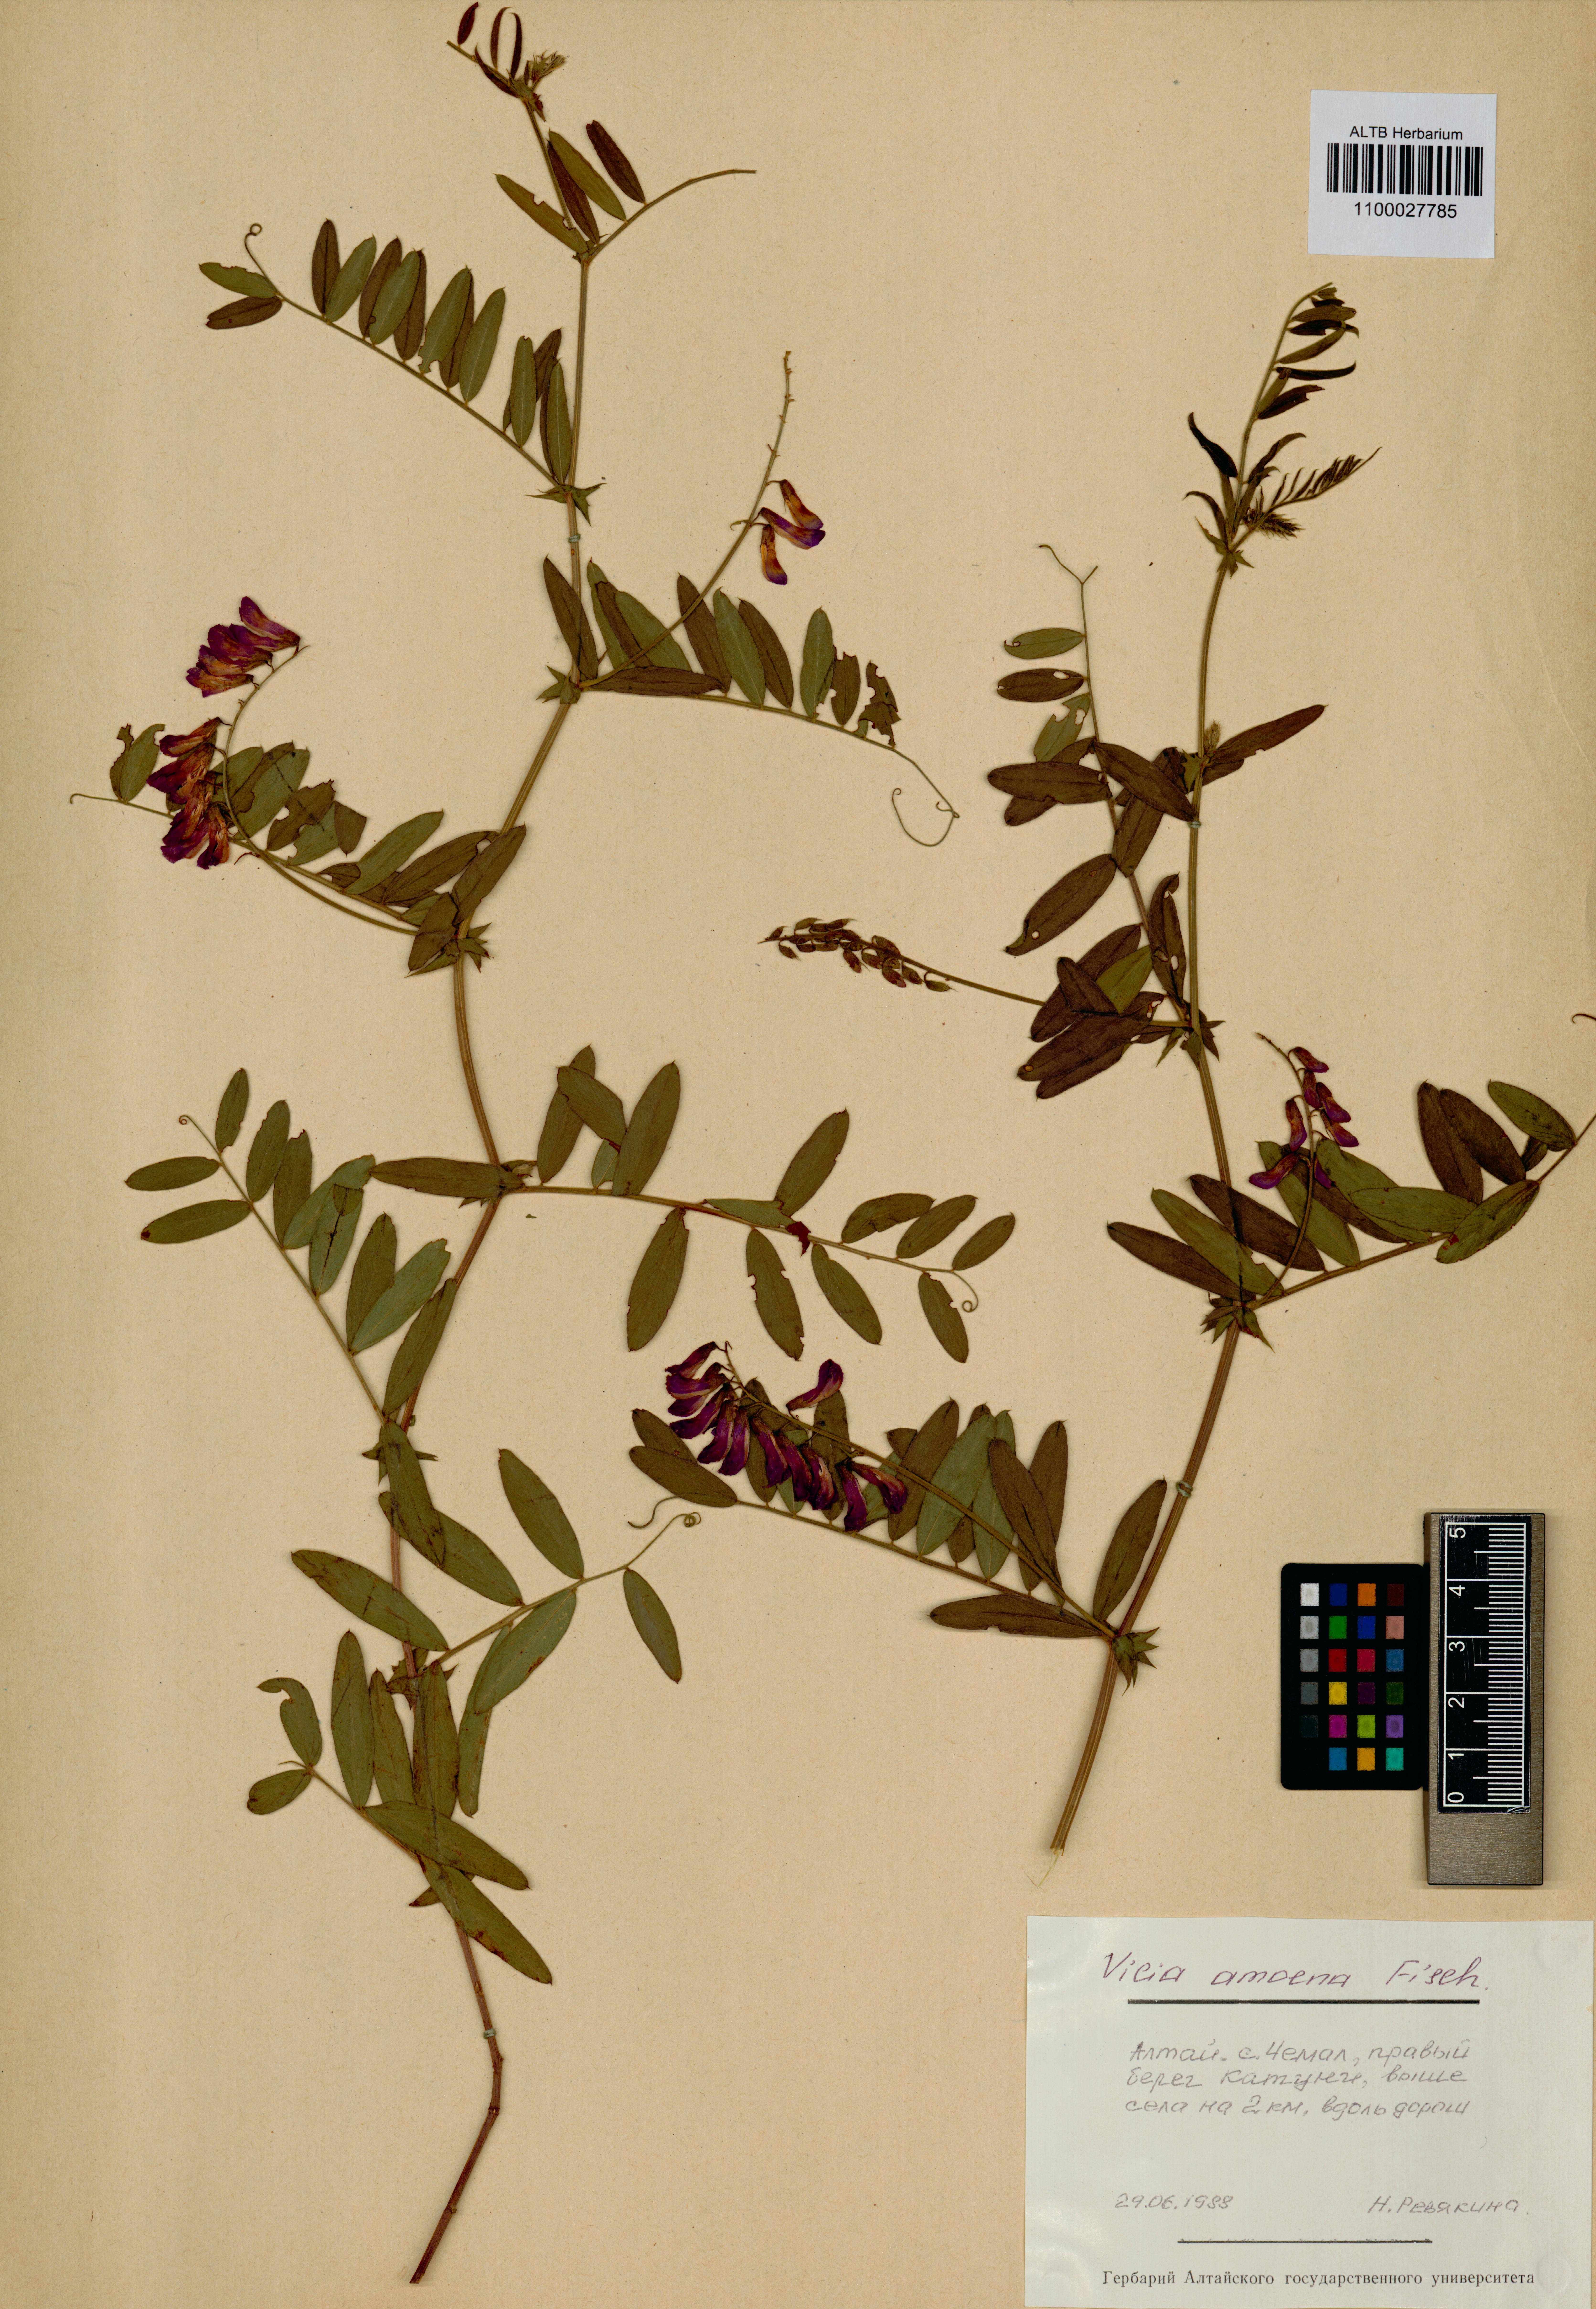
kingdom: Plantae
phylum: Tracheophyta
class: Magnoliopsida
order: Fabales
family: Fabaceae
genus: Vicia
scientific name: Vicia amoena
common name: Cheder ebs
